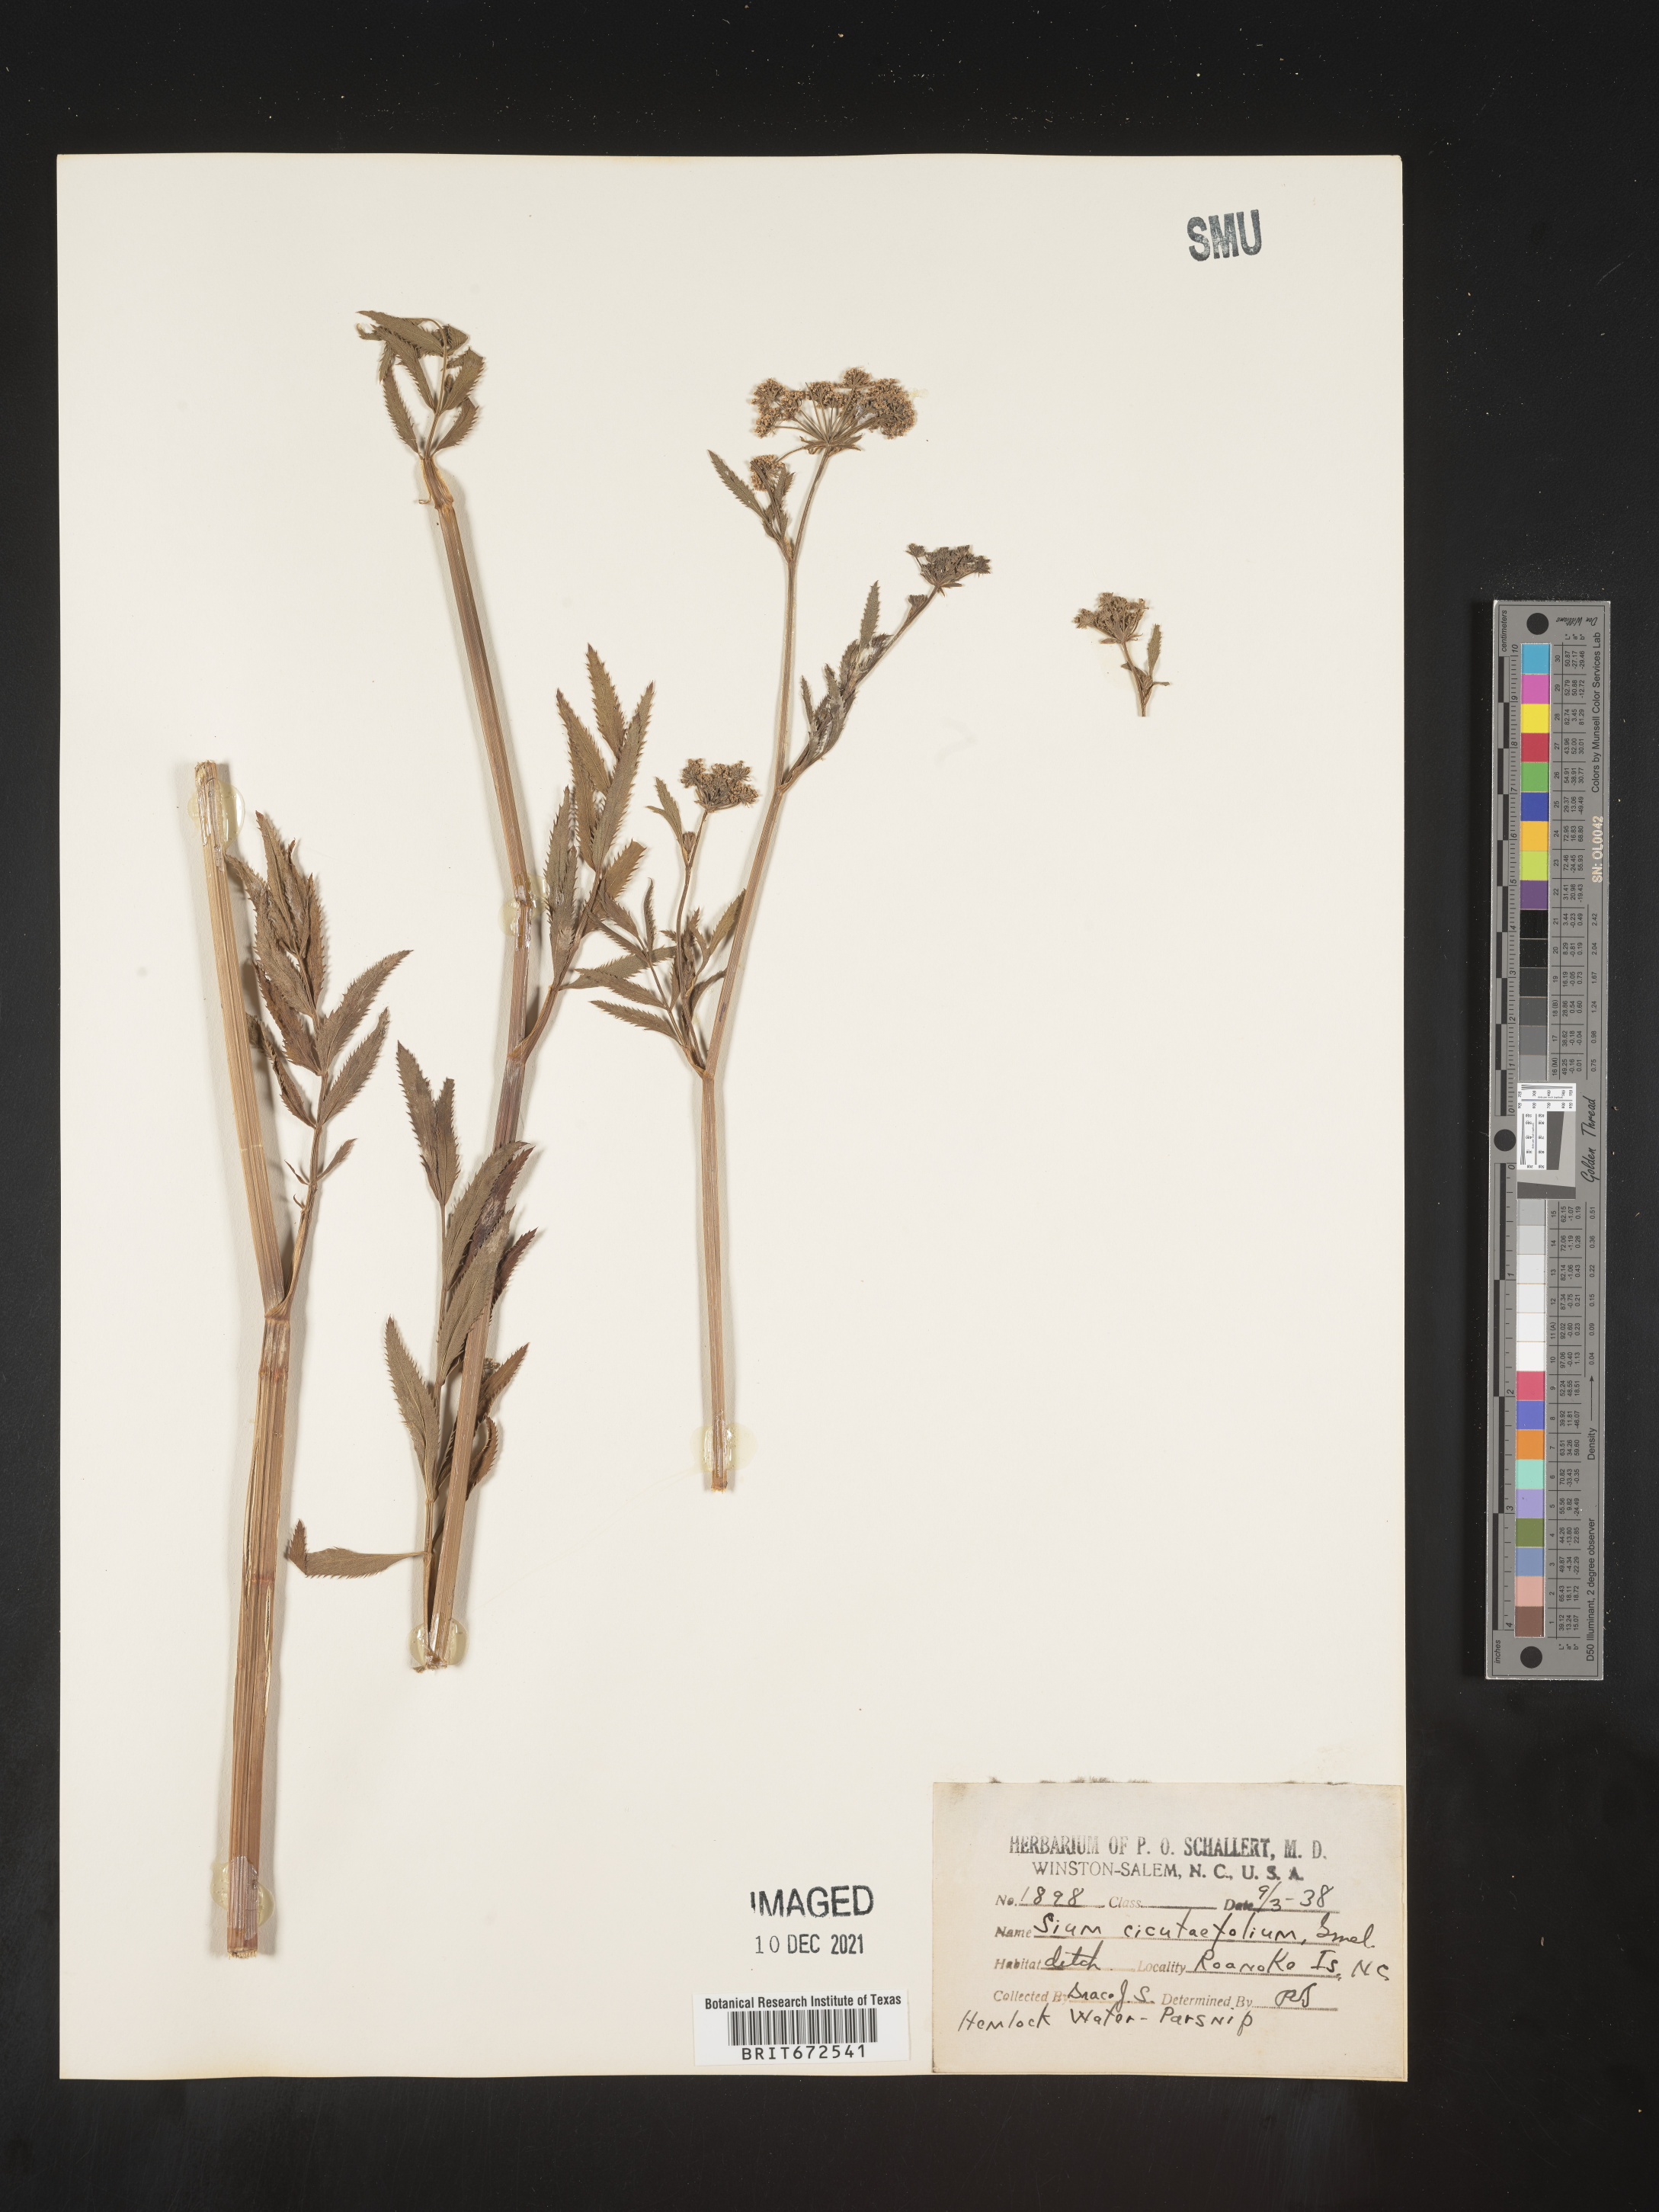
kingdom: Plantae
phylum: Tracheophyta
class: Magnoliopsida
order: Apiales
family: Apiaceae
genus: Sium
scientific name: Sium suave
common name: Hemlock water-parsnip
